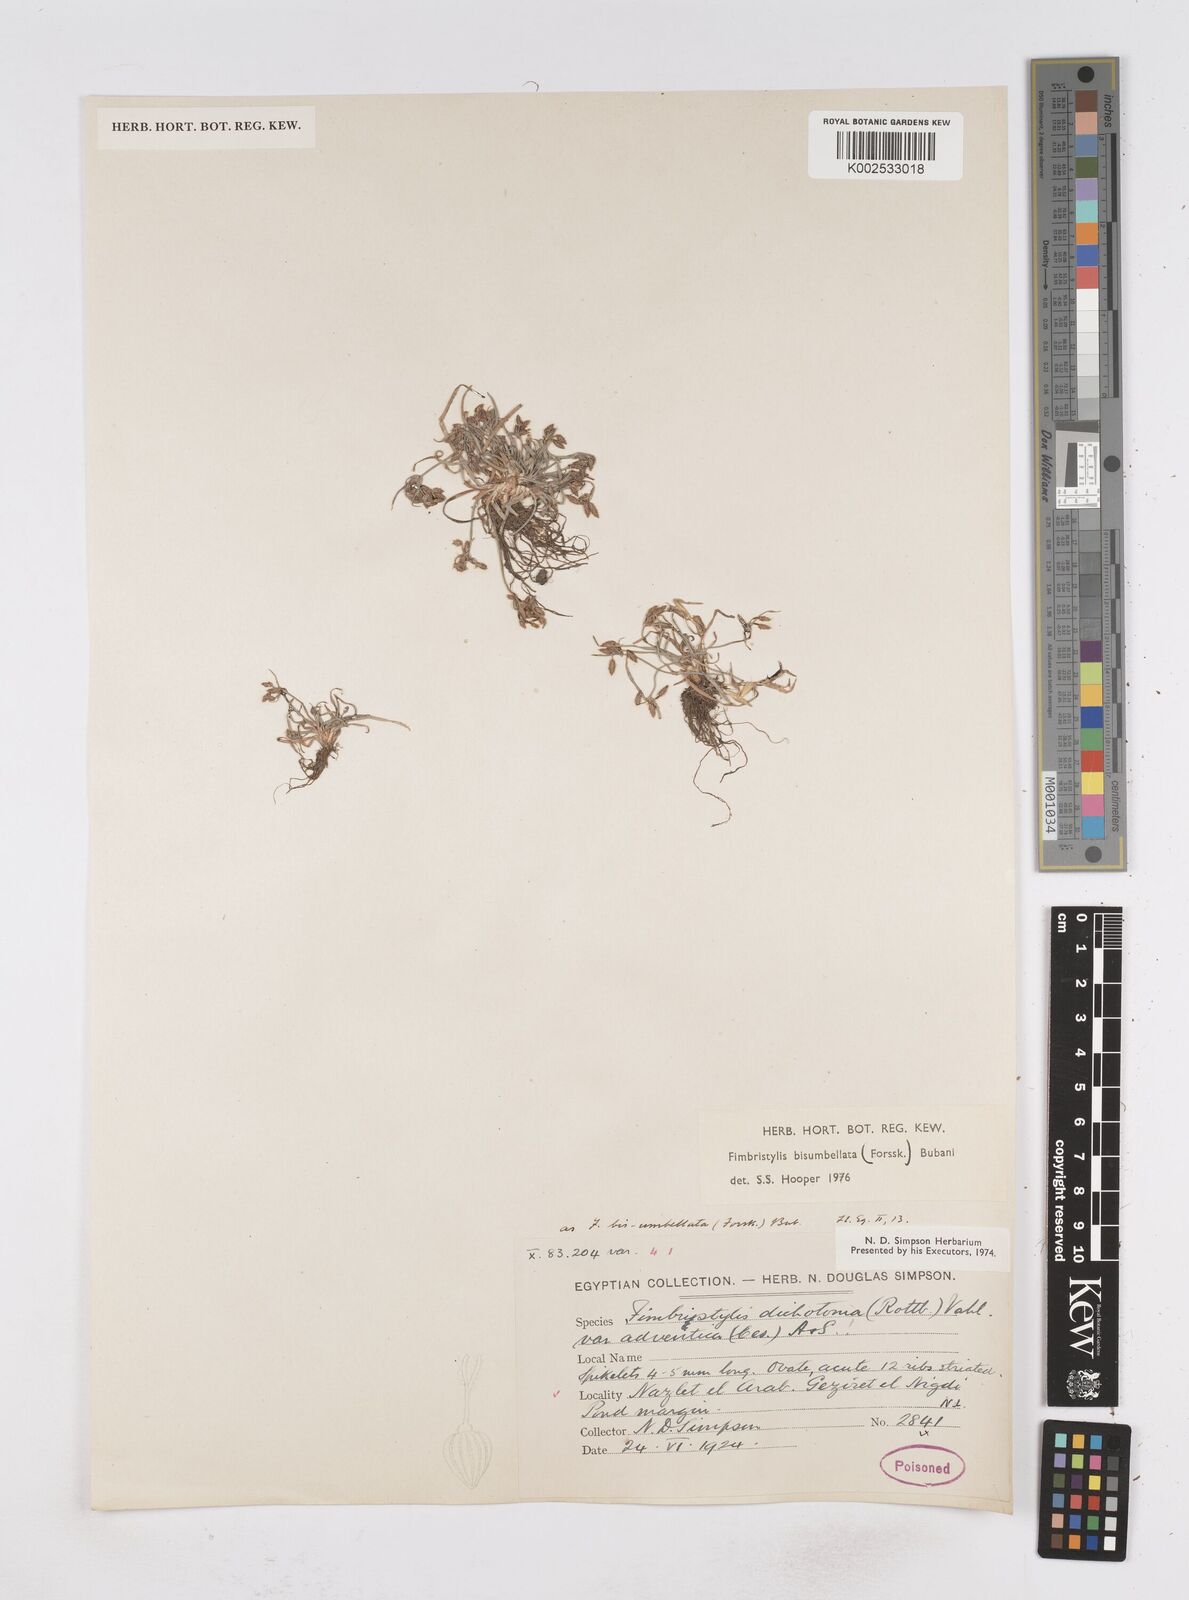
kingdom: Plantae
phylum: Tracheophyta
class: Liliopsida
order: Poales
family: Cyperaceae
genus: Fimbristylis
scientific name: Fimbristylis bisumbellata
